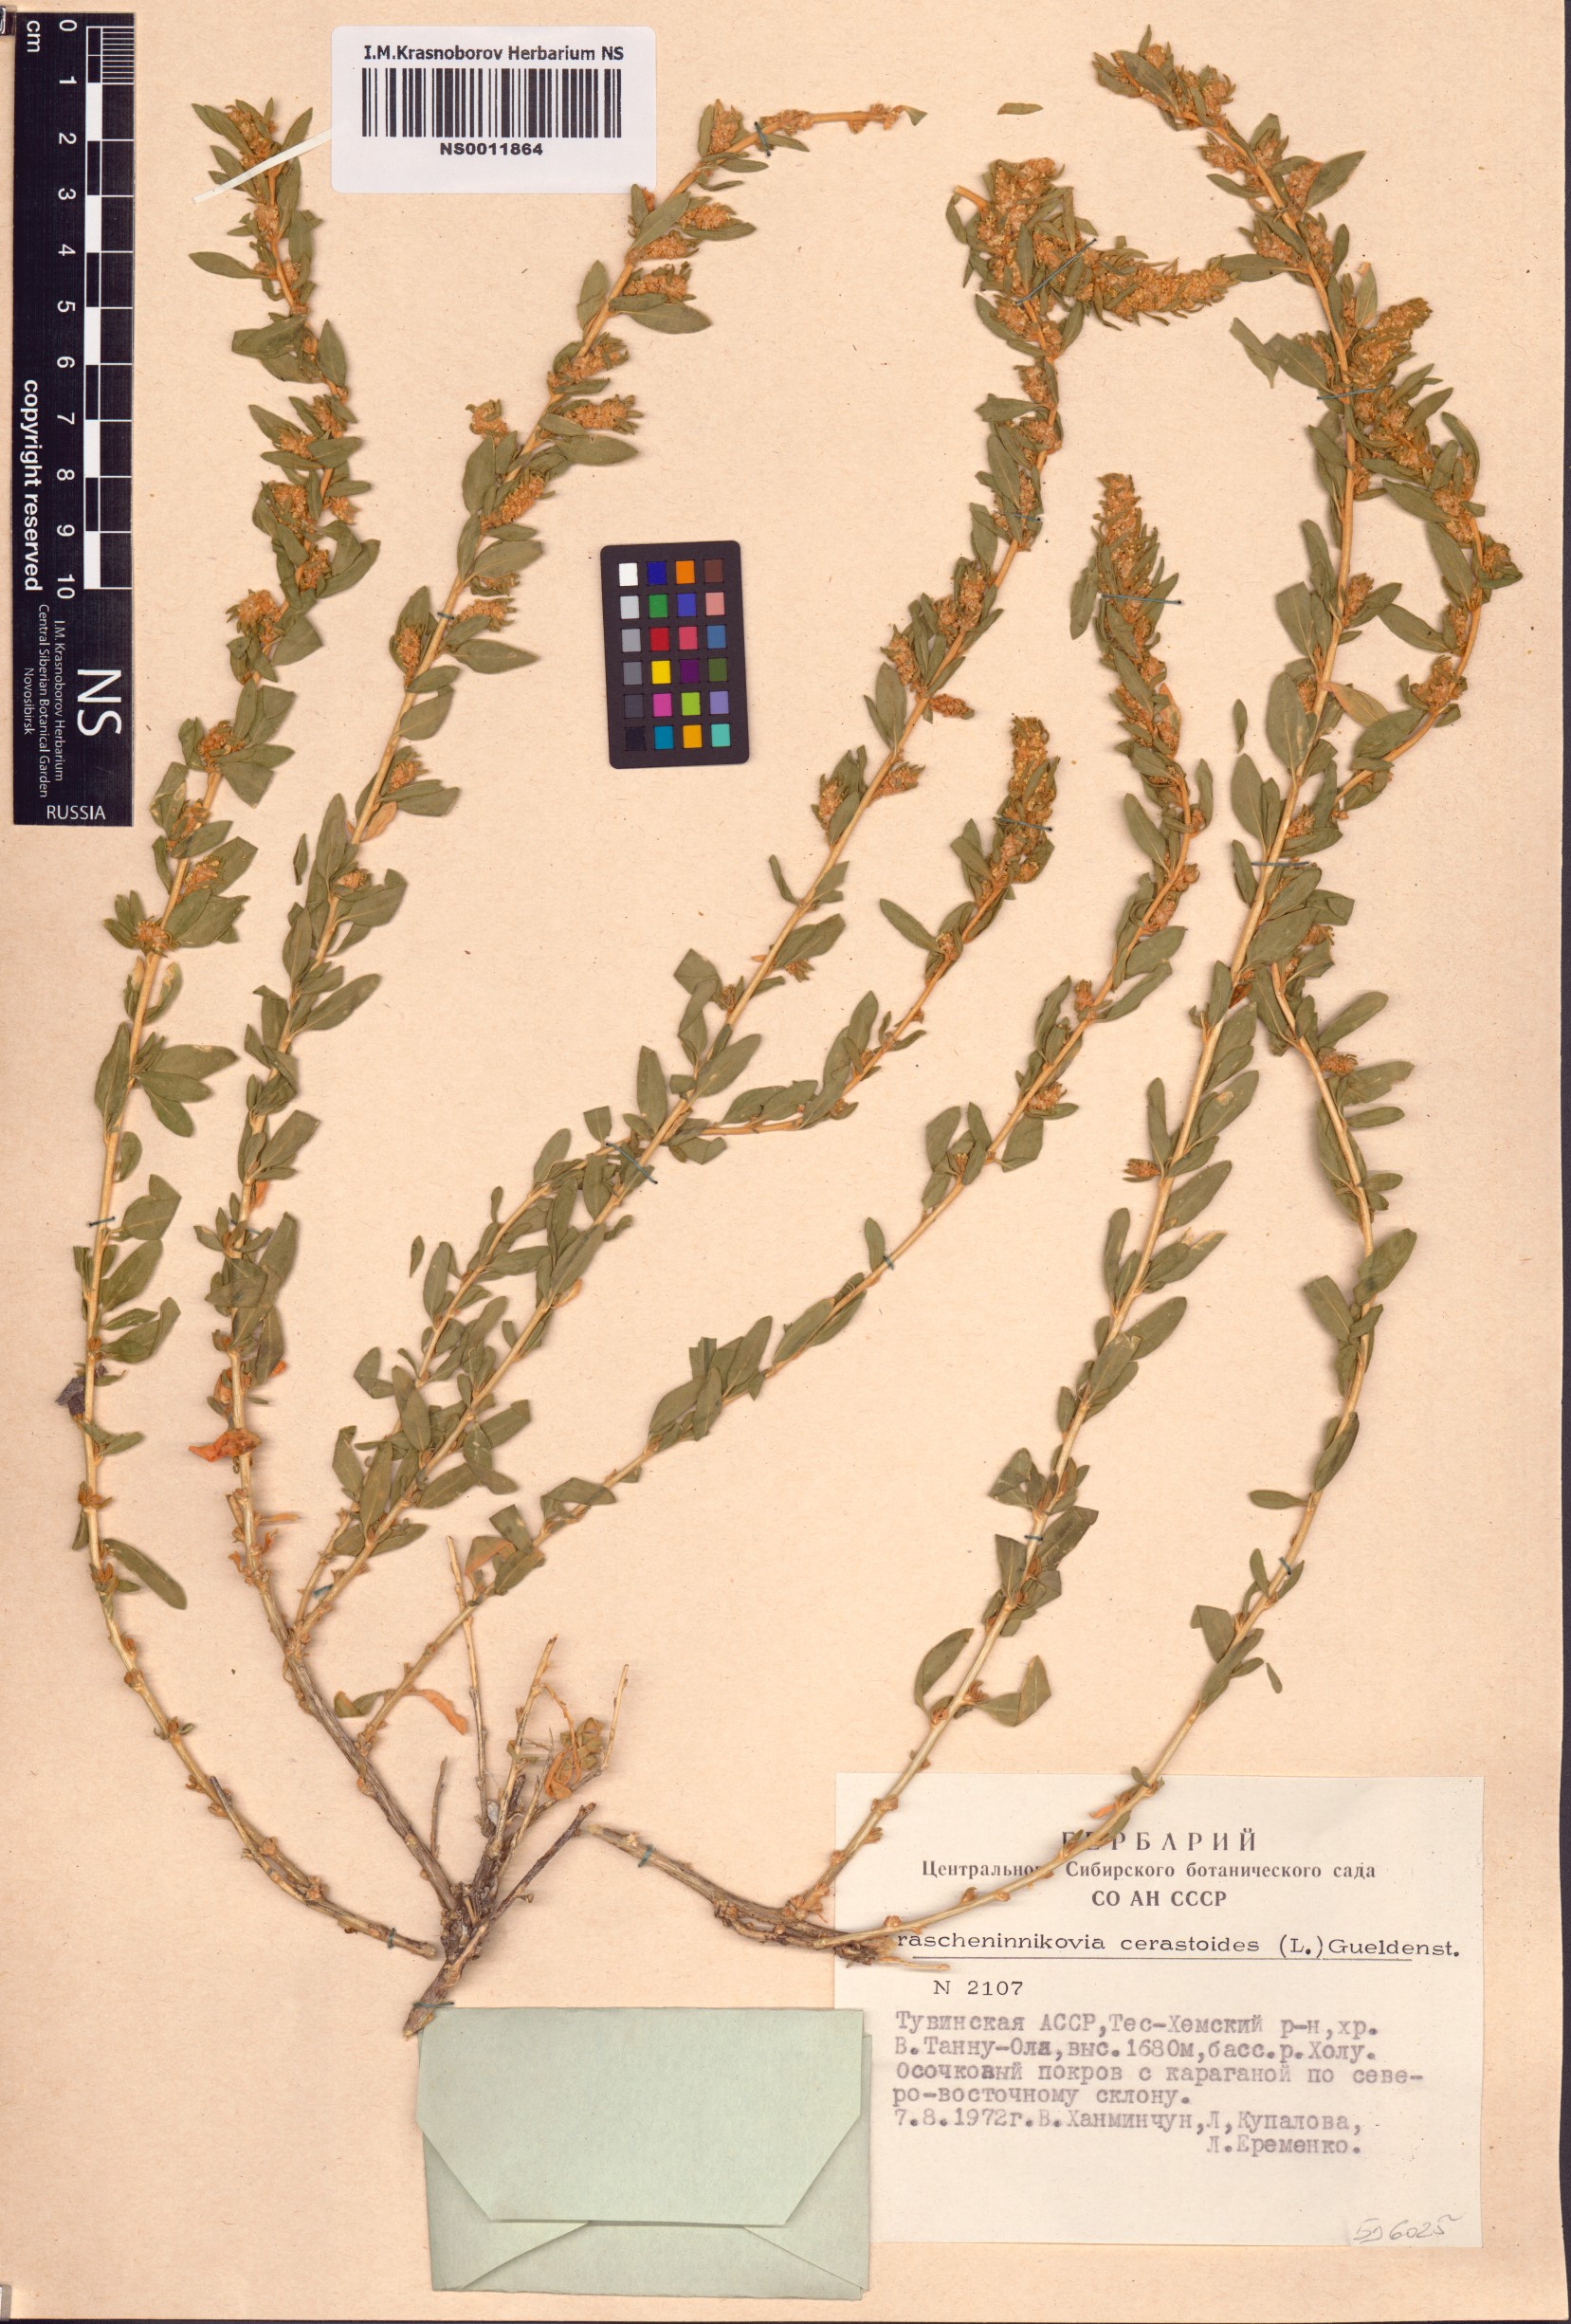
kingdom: Plantae
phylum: Tracheophyta
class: Magnoliopsida
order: Caryophyllales
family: Amaranthaceae
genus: Krascheninnikovia
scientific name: Krascheninnikovia ceratoides
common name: Pamirian winterfat
